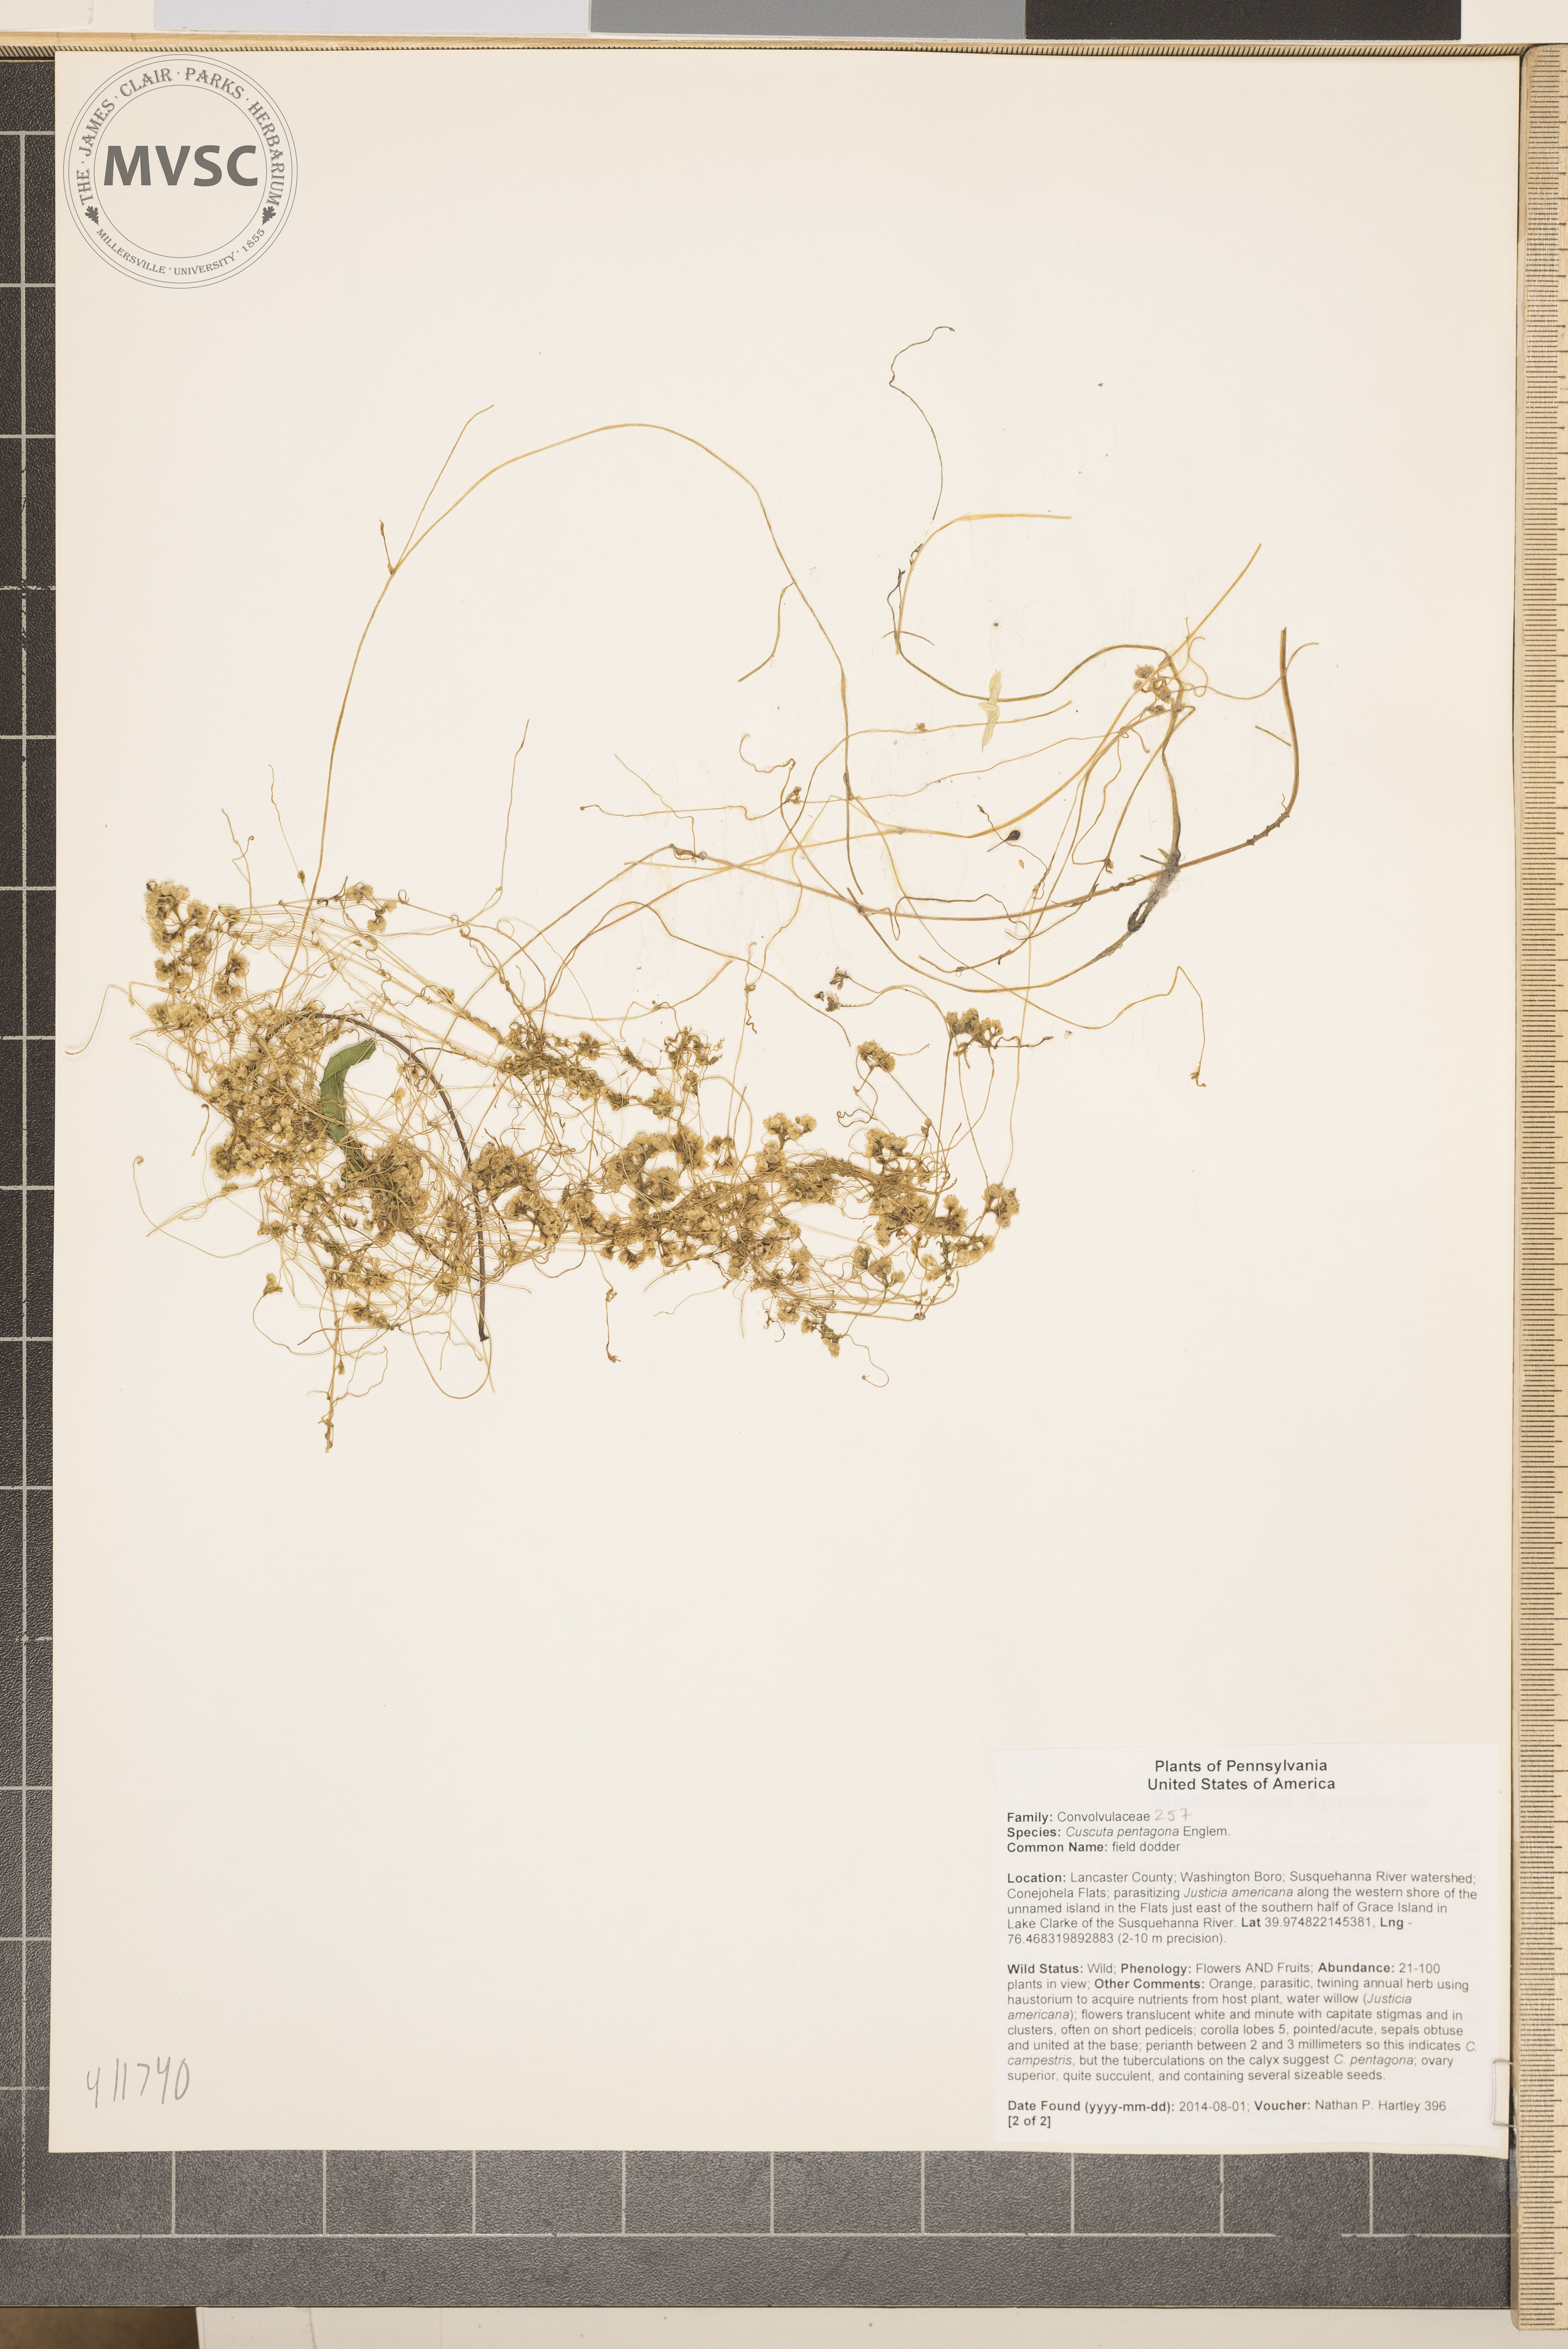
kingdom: Plantae
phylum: Tracheophyta
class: Magnoliopsida
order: Solanales
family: Convolvulaceae
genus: Cuscuta
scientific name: Cuscuta pentagona
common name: field dodder
